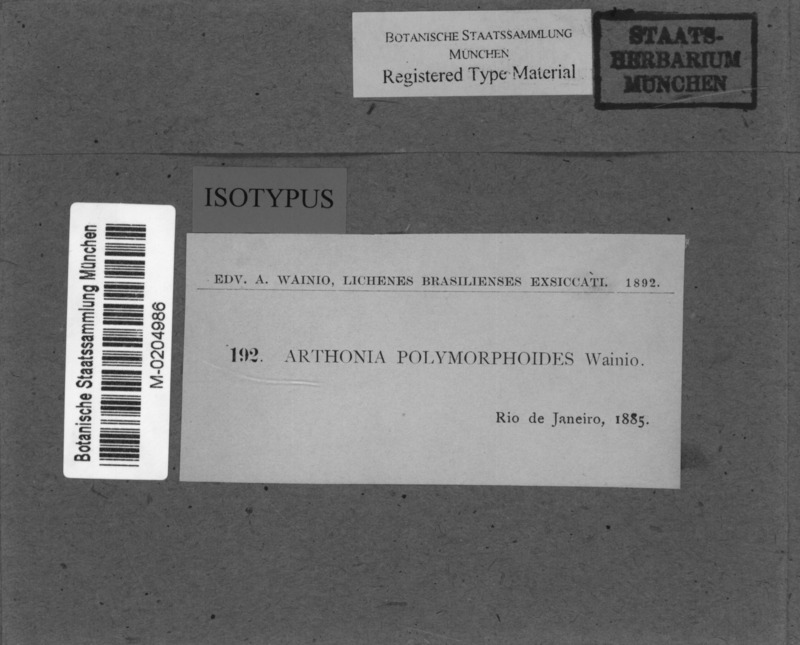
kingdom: Fungi
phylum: Ascomycota
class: Arthoniomycetes
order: Arthoniales
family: Arthoniaceae
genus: Arthonia
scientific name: Arthonia
